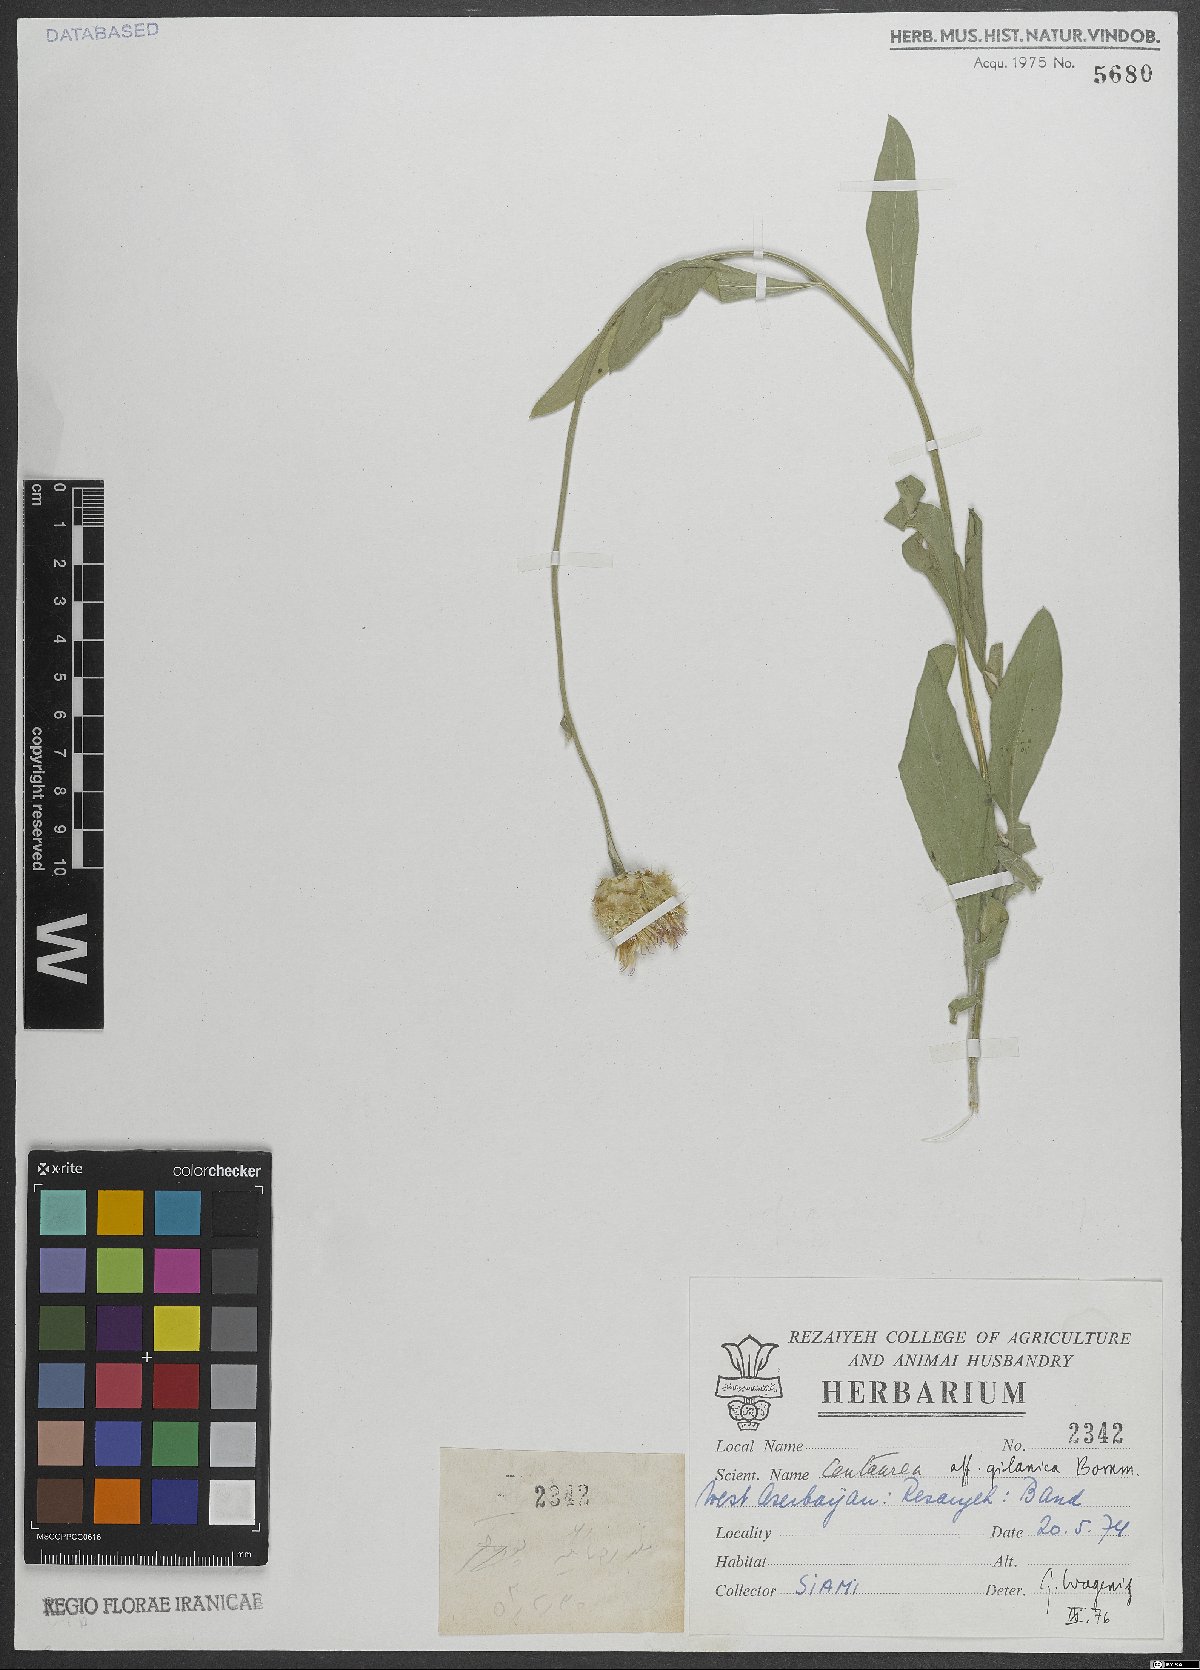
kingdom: Plantae
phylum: Tracheophyta
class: Magnoliopsida
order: Asterales
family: Asteraceae
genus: Psephellus
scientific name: Psephellus gilanicus
